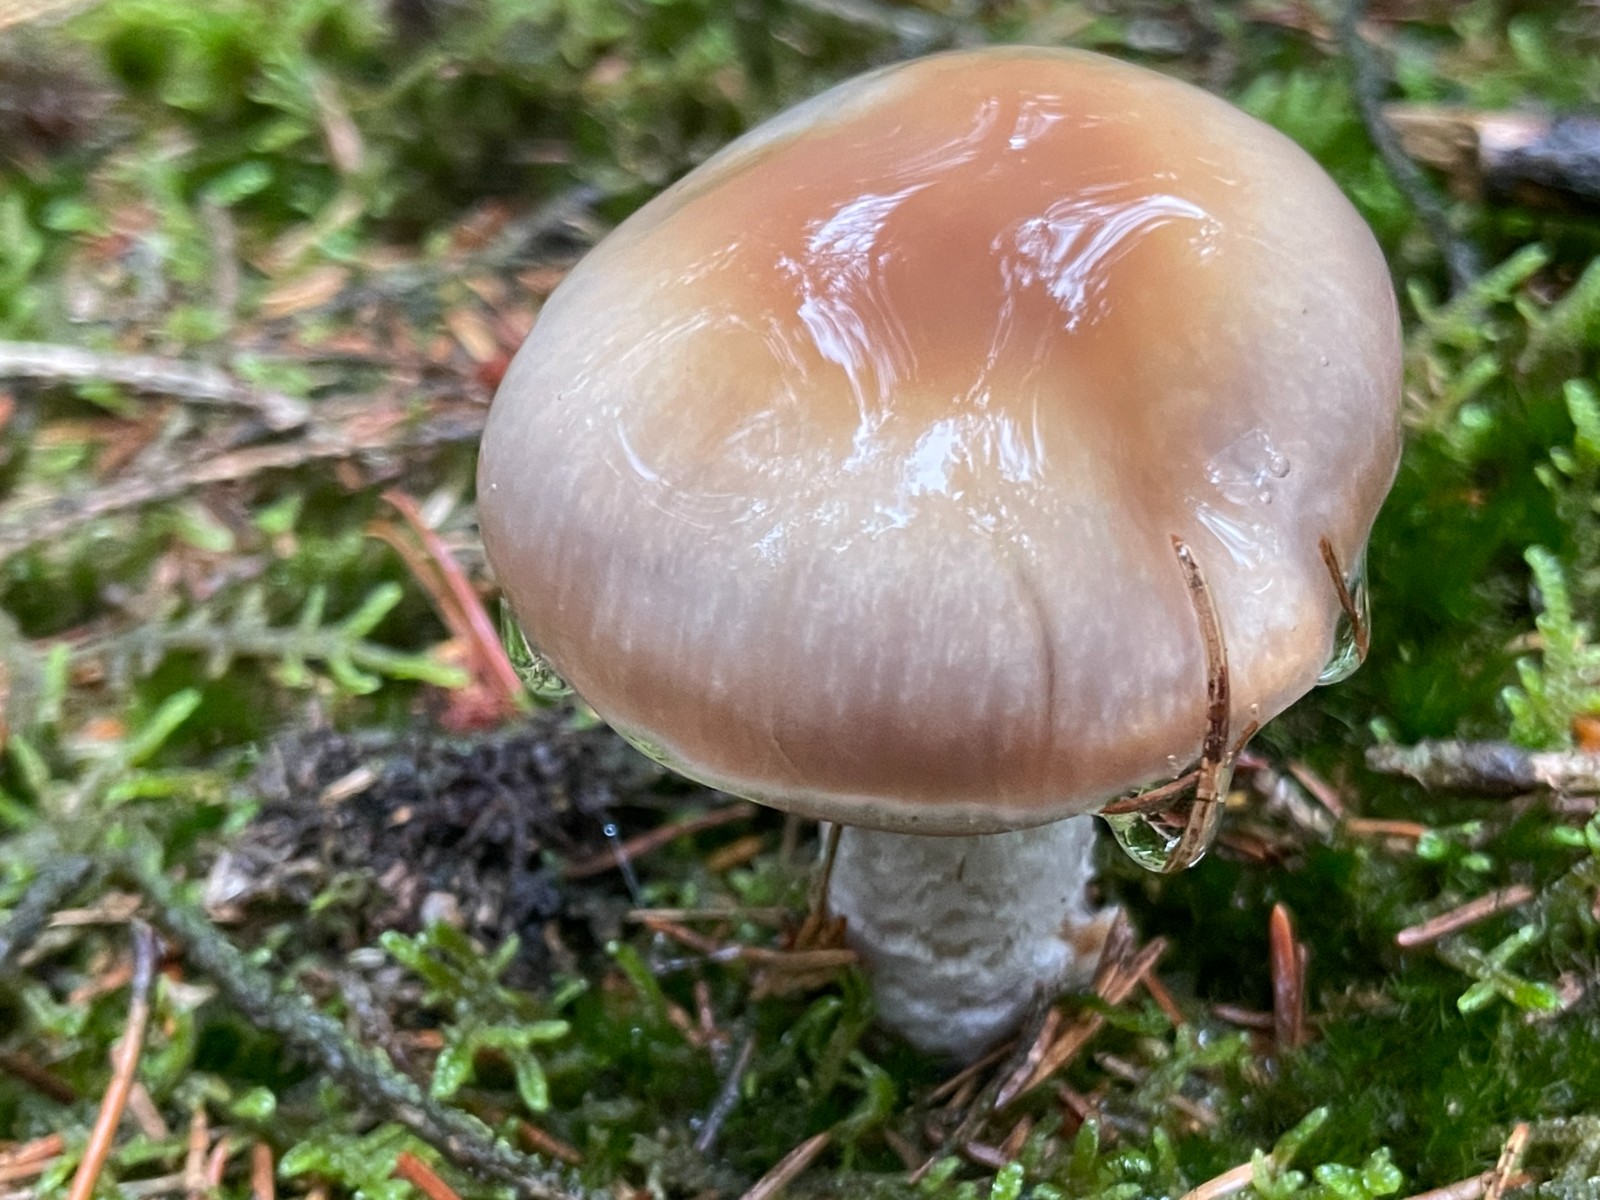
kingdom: Fungi
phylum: Basidiomycota
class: Agaricomycetes
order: Agaricales
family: Cortinariaceae
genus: Cortinarius
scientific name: Cortinarius mucifluus
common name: rynket slørhat
